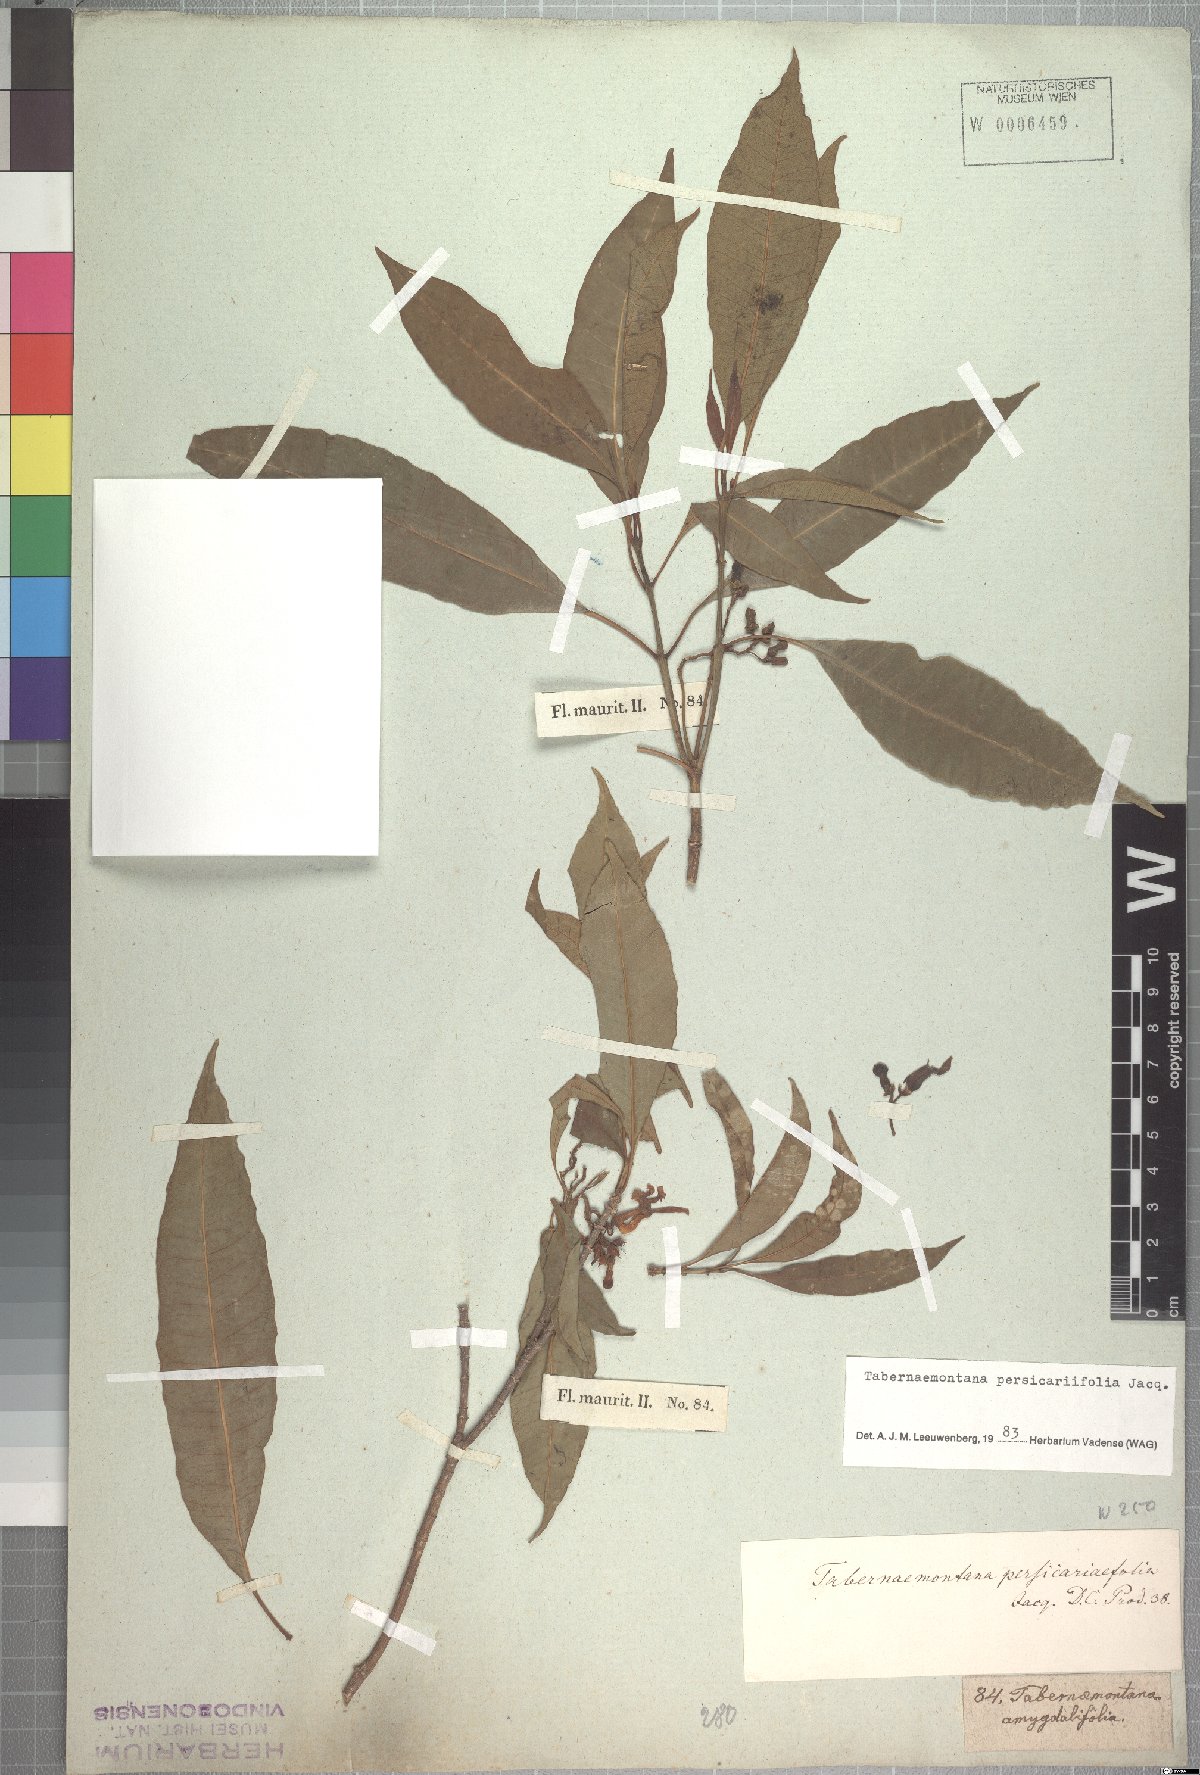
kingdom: Plantae
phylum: Tracheophyta
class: Magnoliopsida
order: Gentianales
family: Apocynaceae
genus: Tabernaemontana
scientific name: Tabernaemontana persicariifolia
